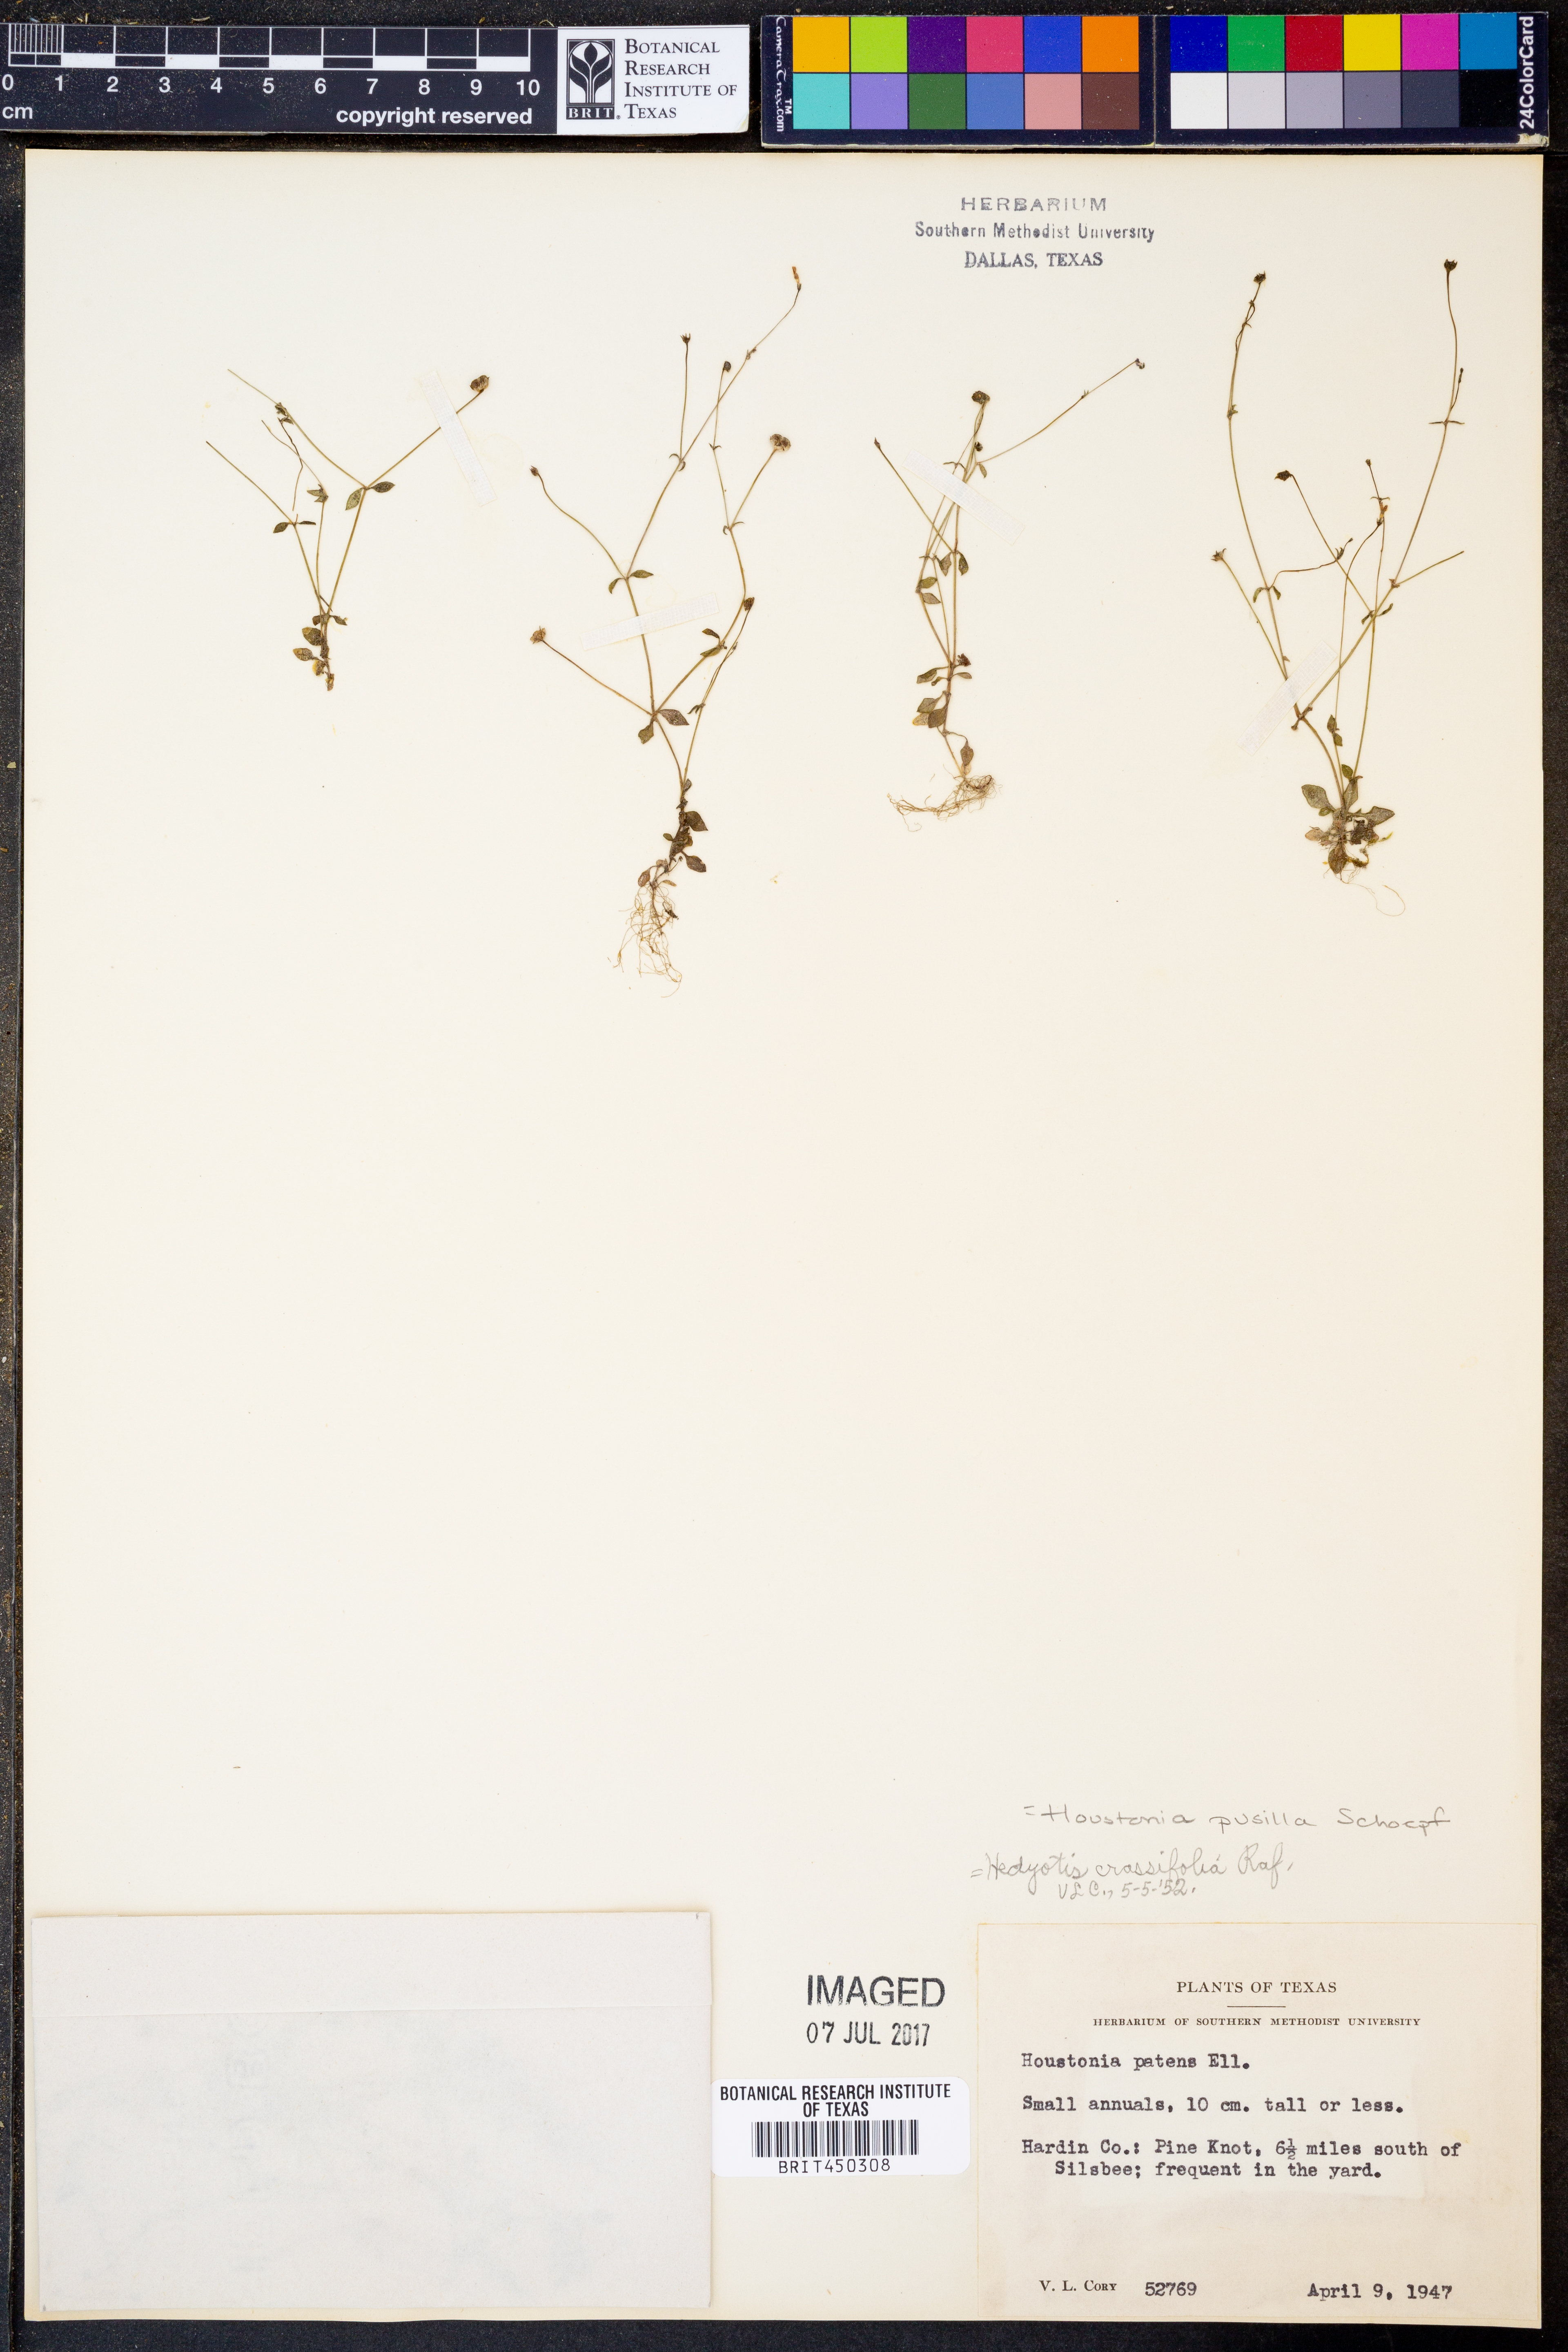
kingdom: Plantae
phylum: Tracheophyta
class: Magnoliopsida
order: Gentianales
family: Rubiaceae
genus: Houstonia
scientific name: Houstonia pusilla
